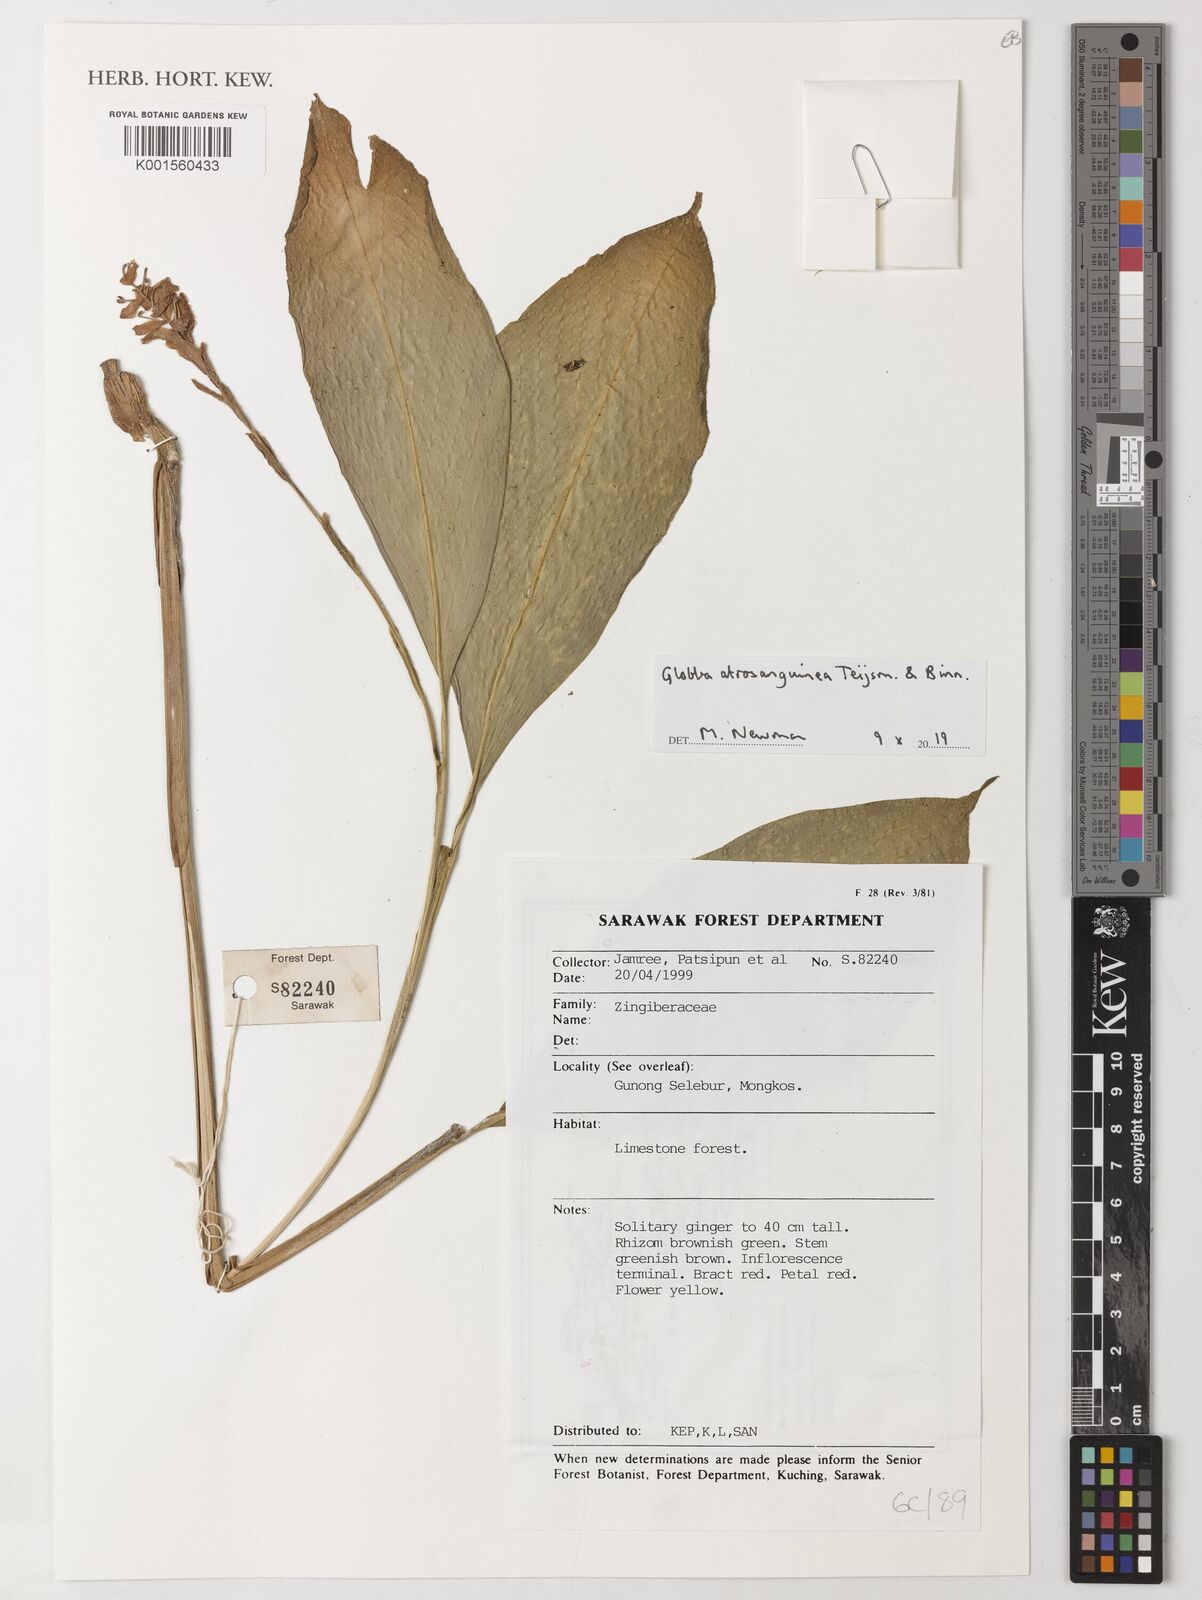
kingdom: Plantae
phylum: Tracheophyta
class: Liliopsida
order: Zingiberales
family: Zingiberaceae
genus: Globba
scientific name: Globba atrosanguinea
